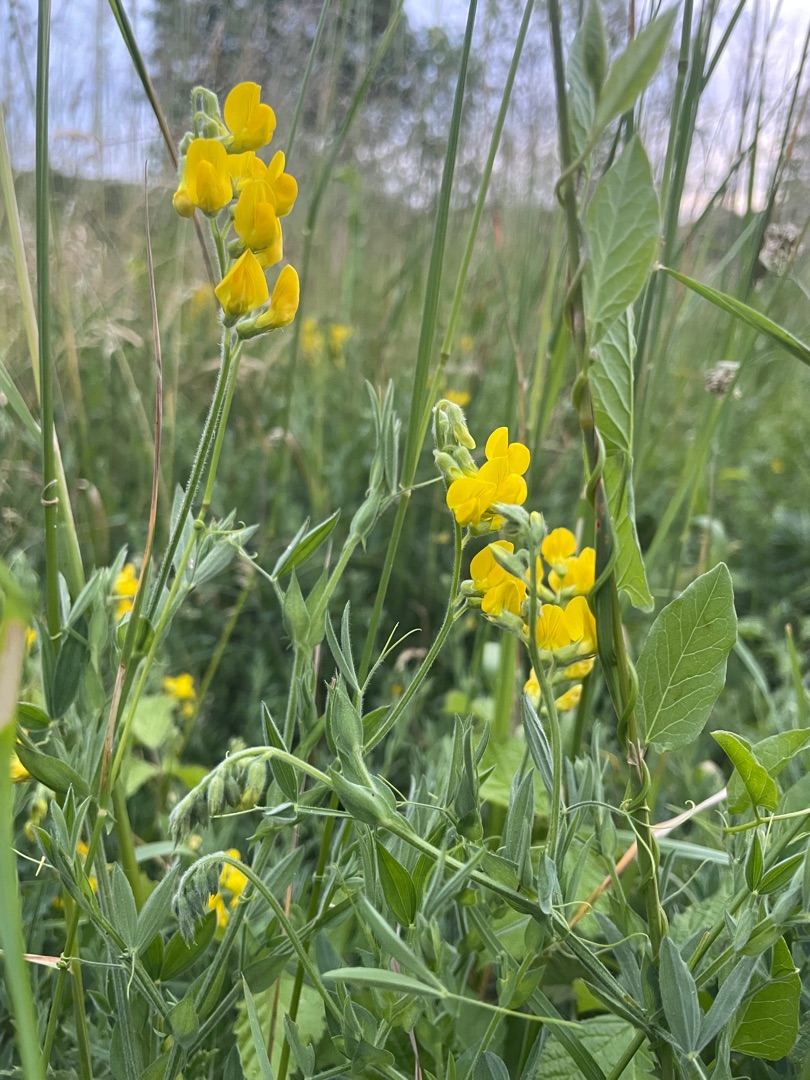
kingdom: Plantae
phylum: Tracheophyta
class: Magnoliopsida
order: Fabales
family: Fabaceae
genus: Lathyrus
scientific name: Lathyrus pratensis
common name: Gul fladbælg
